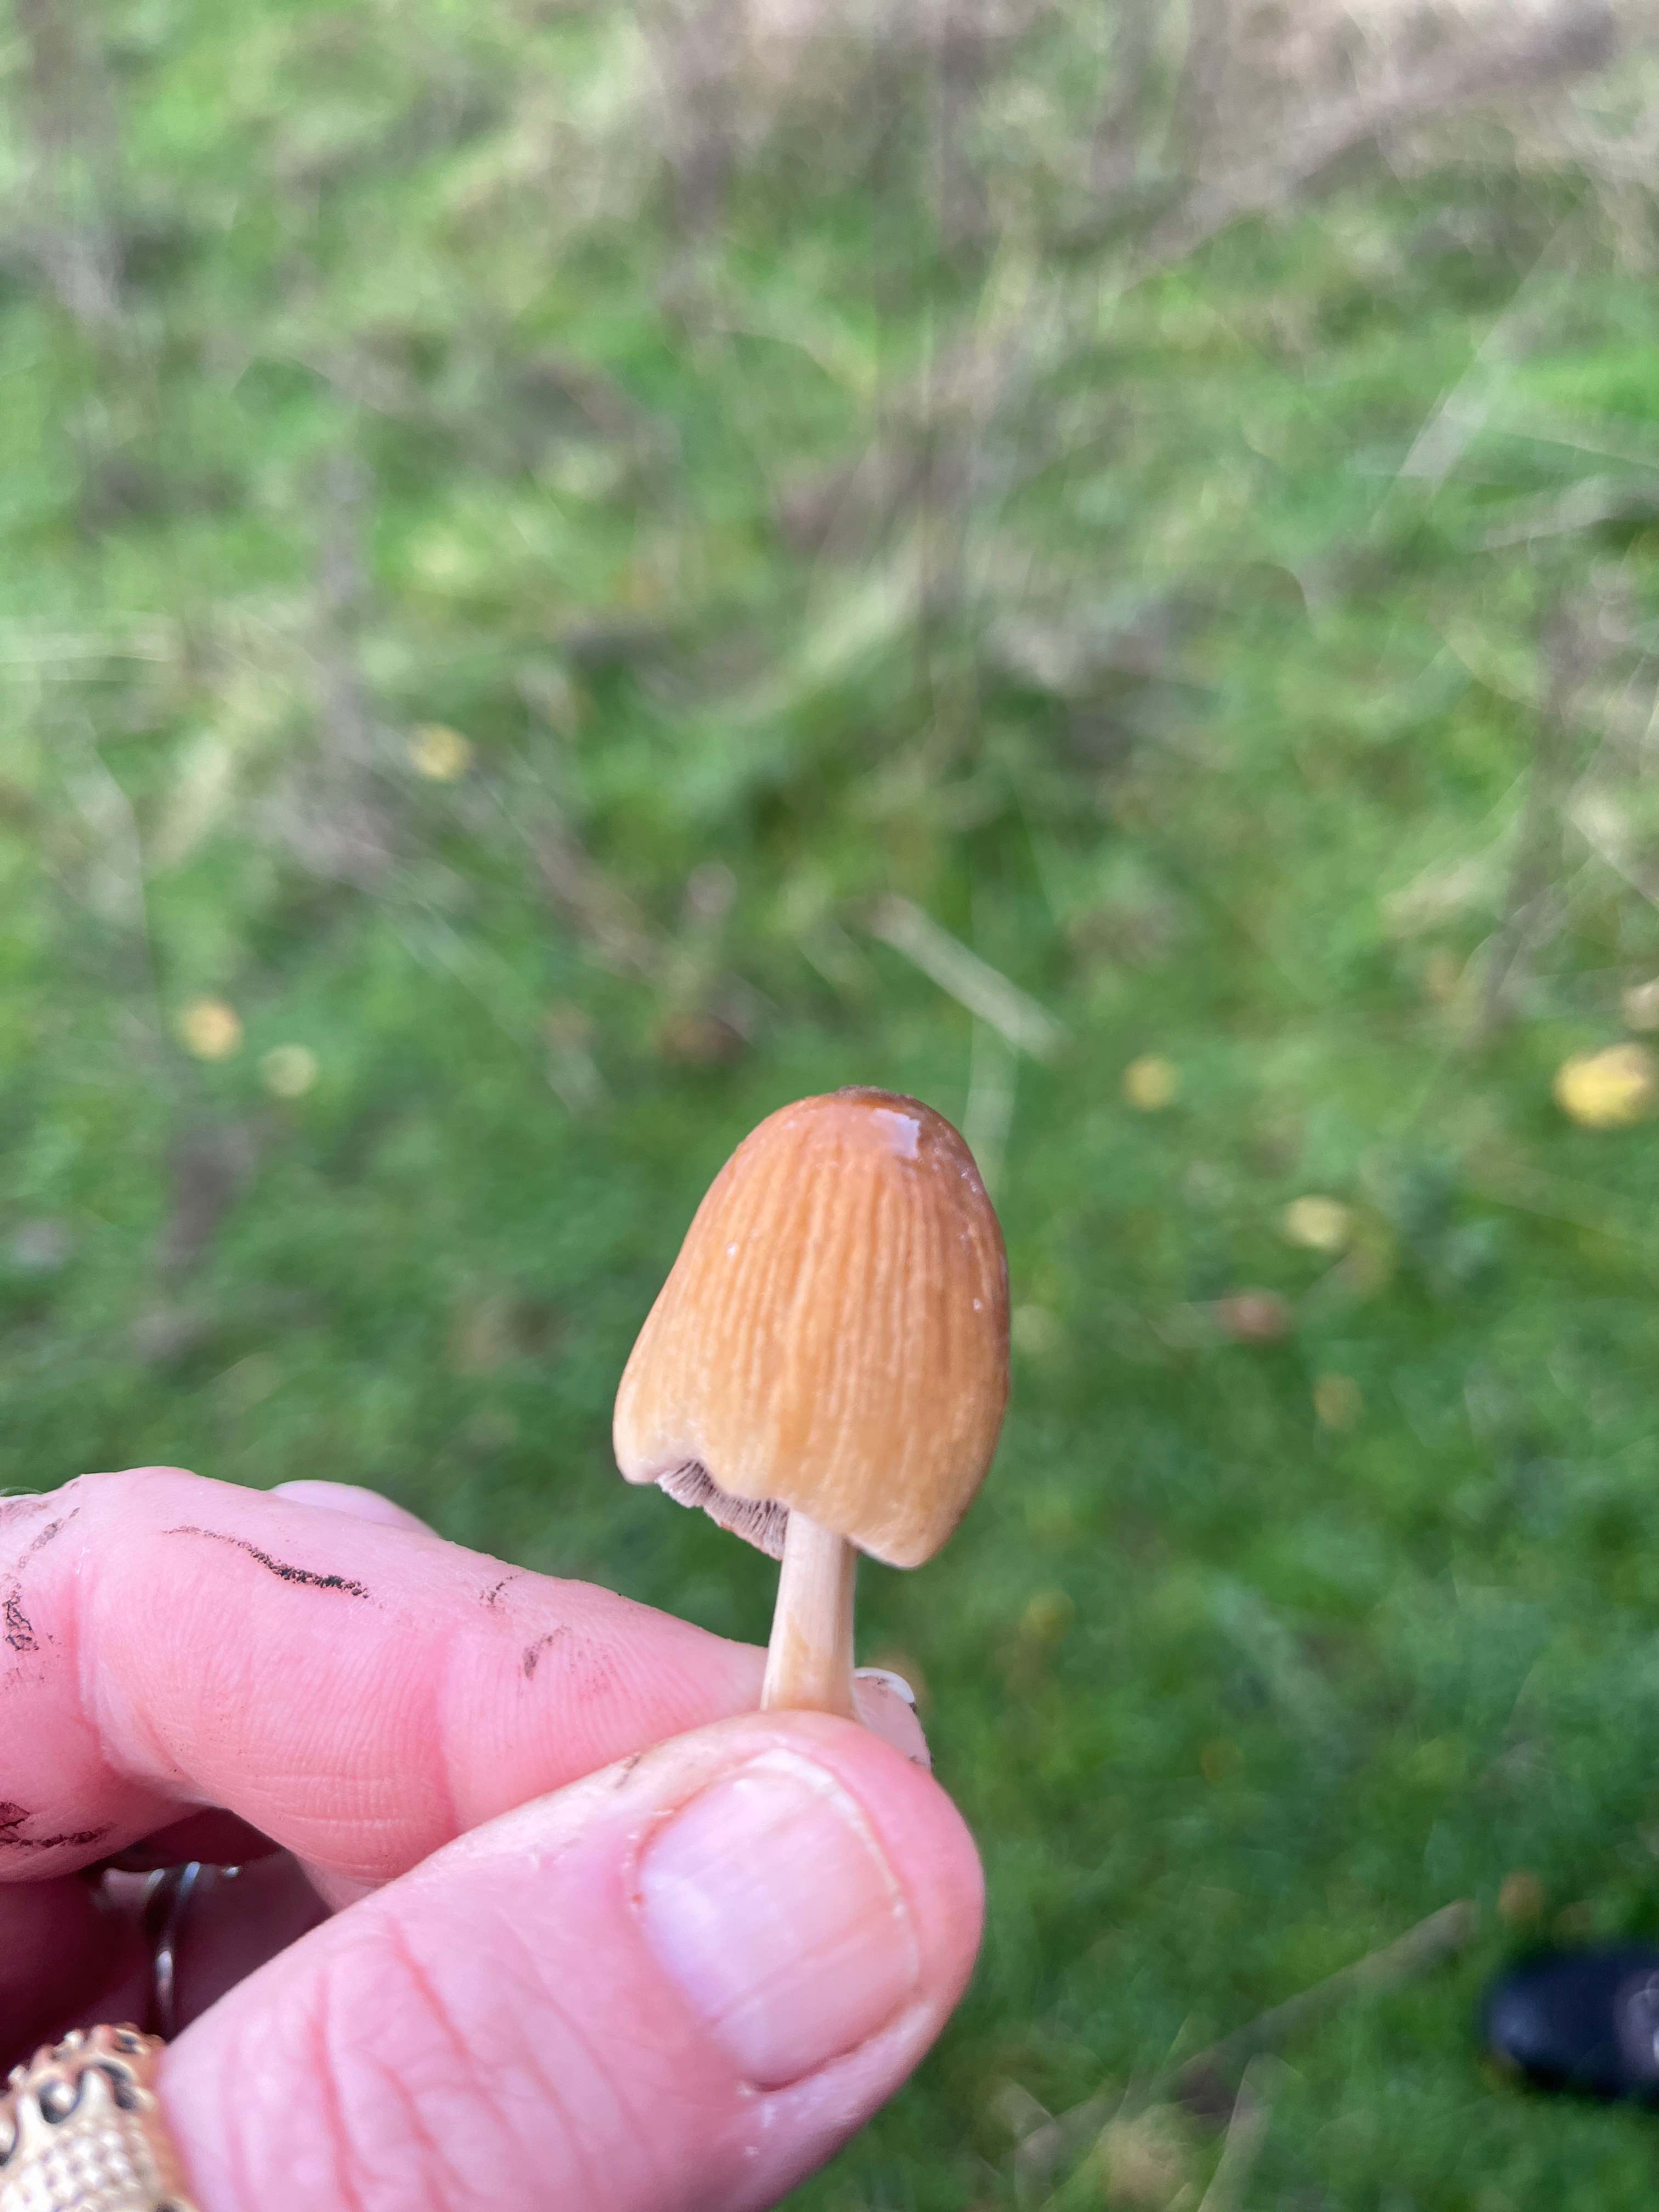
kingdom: Fungi
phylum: Basidiomycota
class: Agaricomycetes
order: Agaricales
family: Psathyrellaceae
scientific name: Psathyrellaceae
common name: mørkhatfamilien
